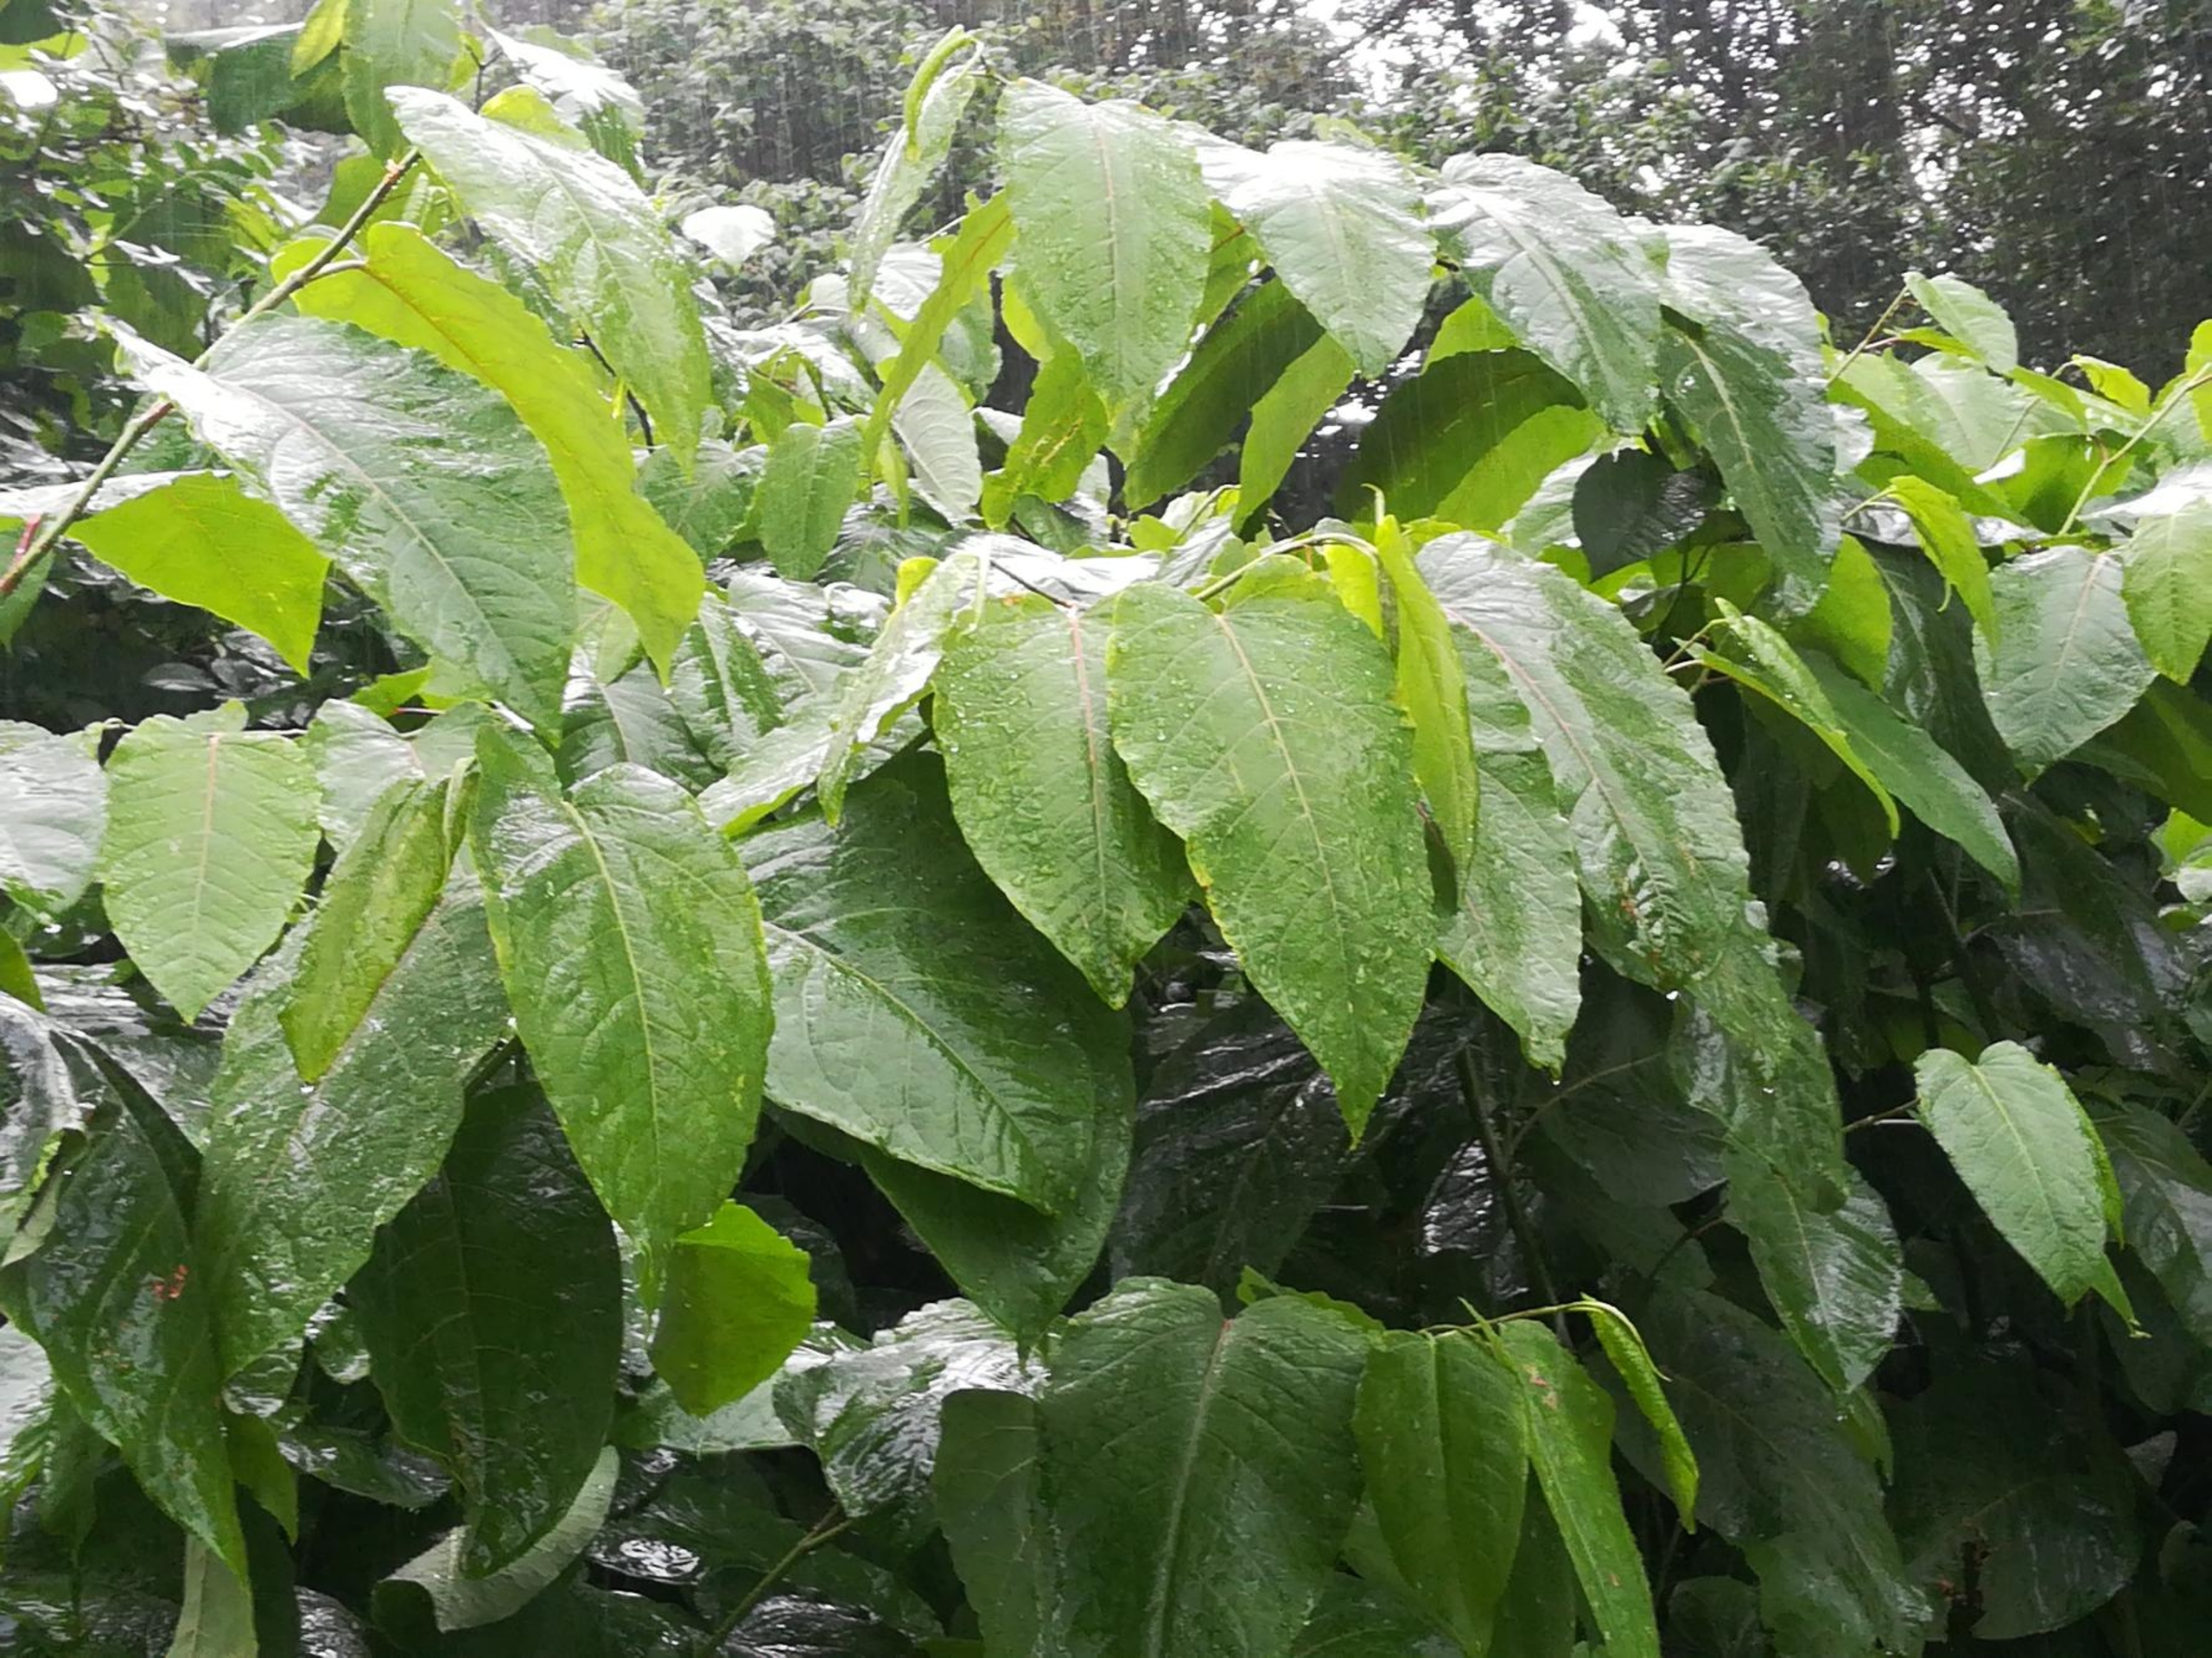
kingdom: Plantae
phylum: Tracheophyta
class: Magnoliopsida
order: Caryophyllales
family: Polygonaceae
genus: Reynoutria
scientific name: Reynoutria sachalinensis
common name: Kæmpe-pileurt
